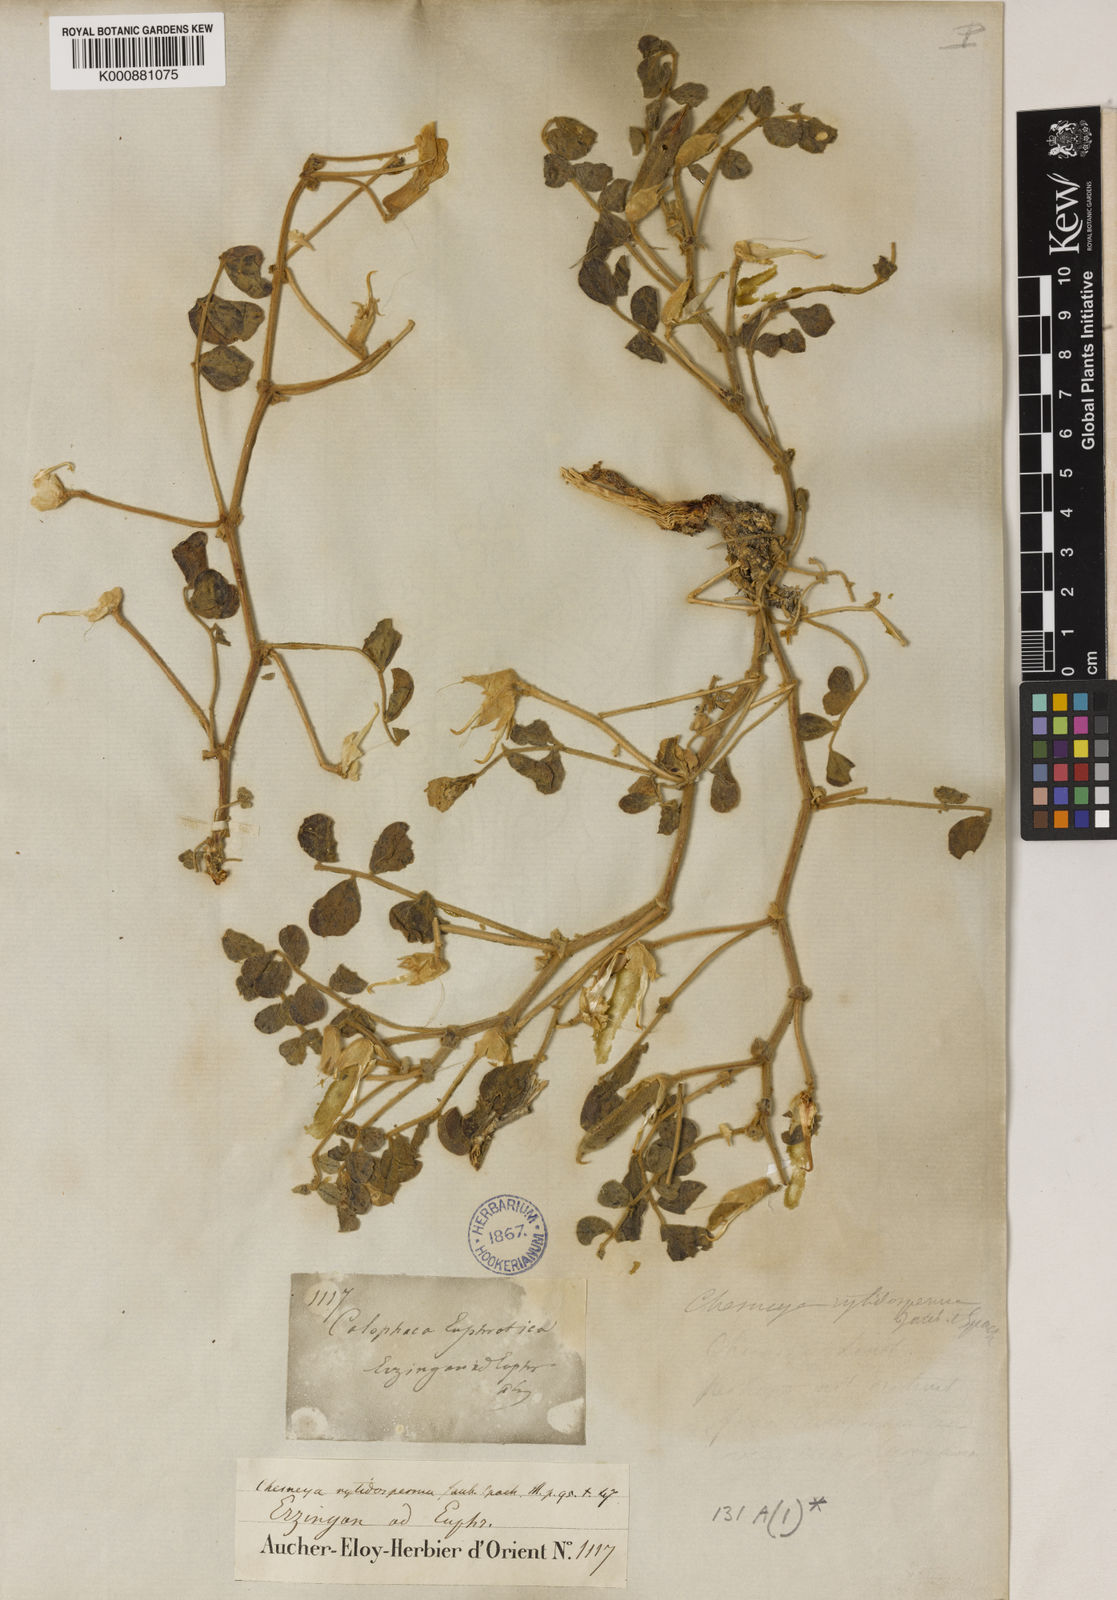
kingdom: Plantae
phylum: Tracheophyta
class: Magnoliopsida
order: Fabales
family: Fabaceae
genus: Chesneya
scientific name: Chesneya rytidosperma
